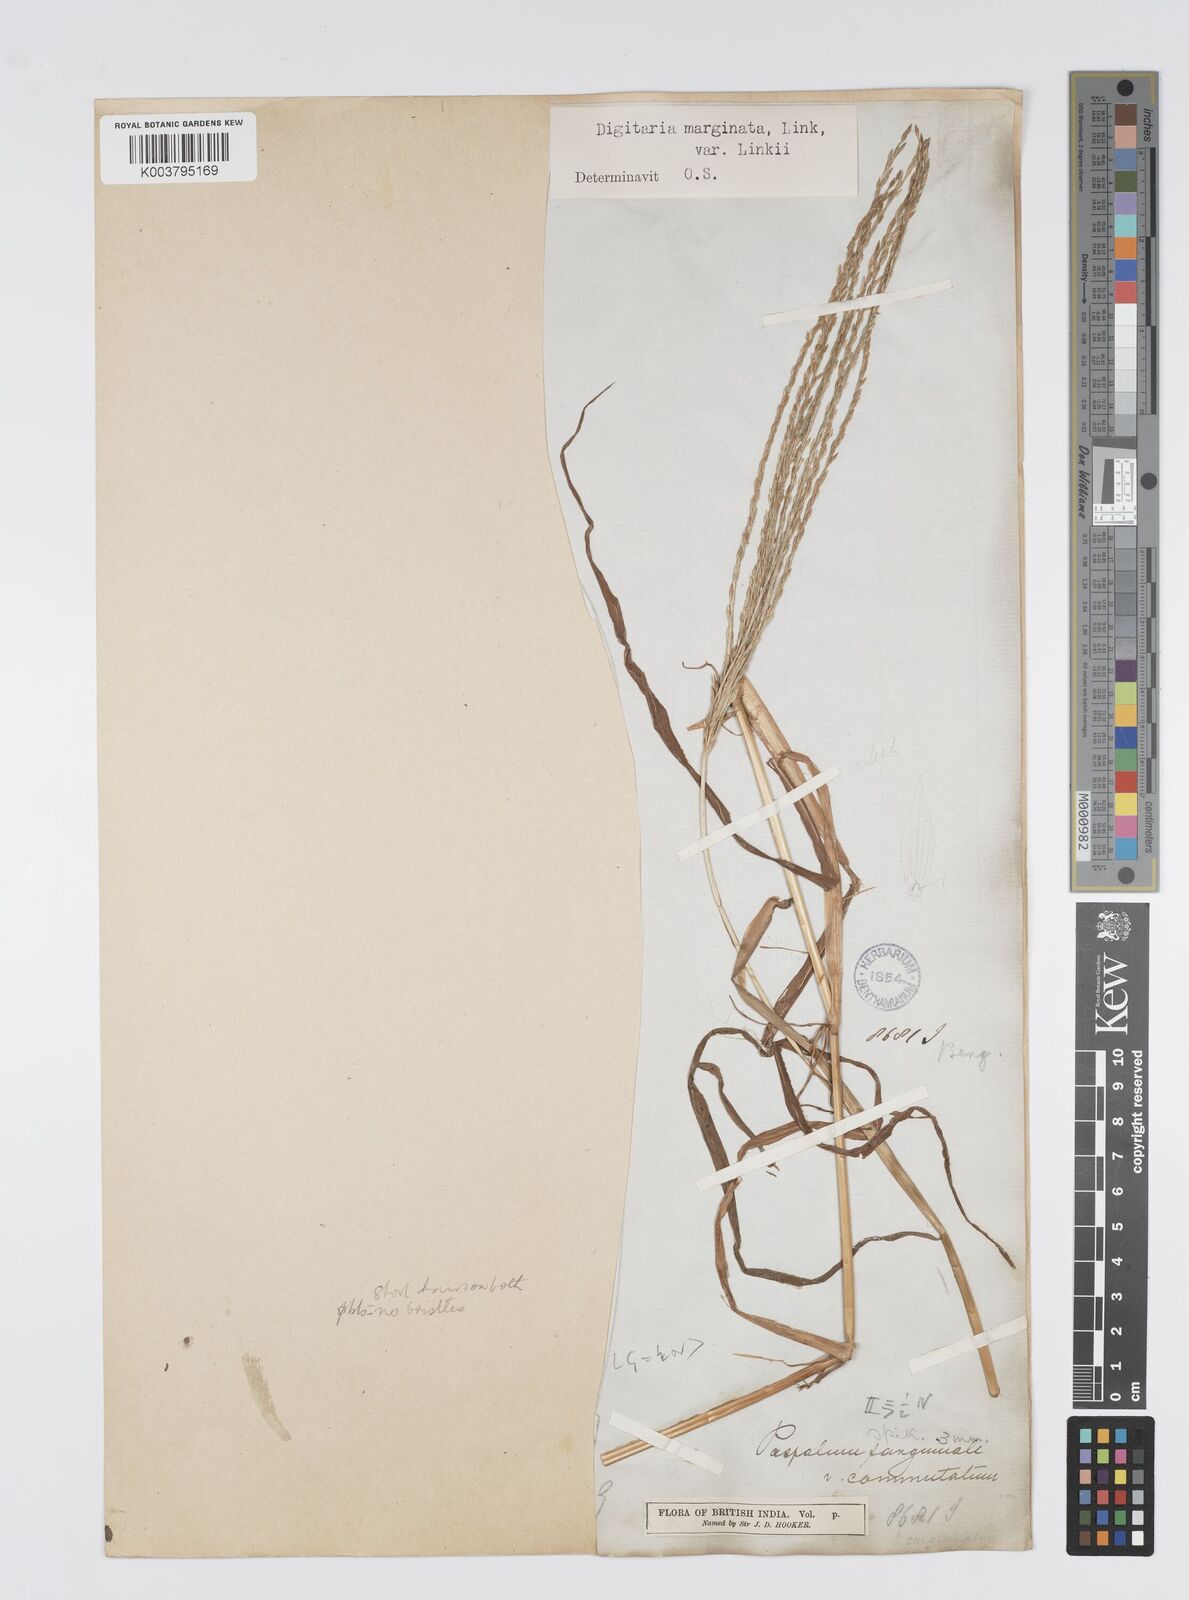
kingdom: Plantae
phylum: Tracheophyta
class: Liliopsida
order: Poales
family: Poaceae
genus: Digitaria
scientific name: Digitaria ciliaris
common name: Tropical finger-grass
